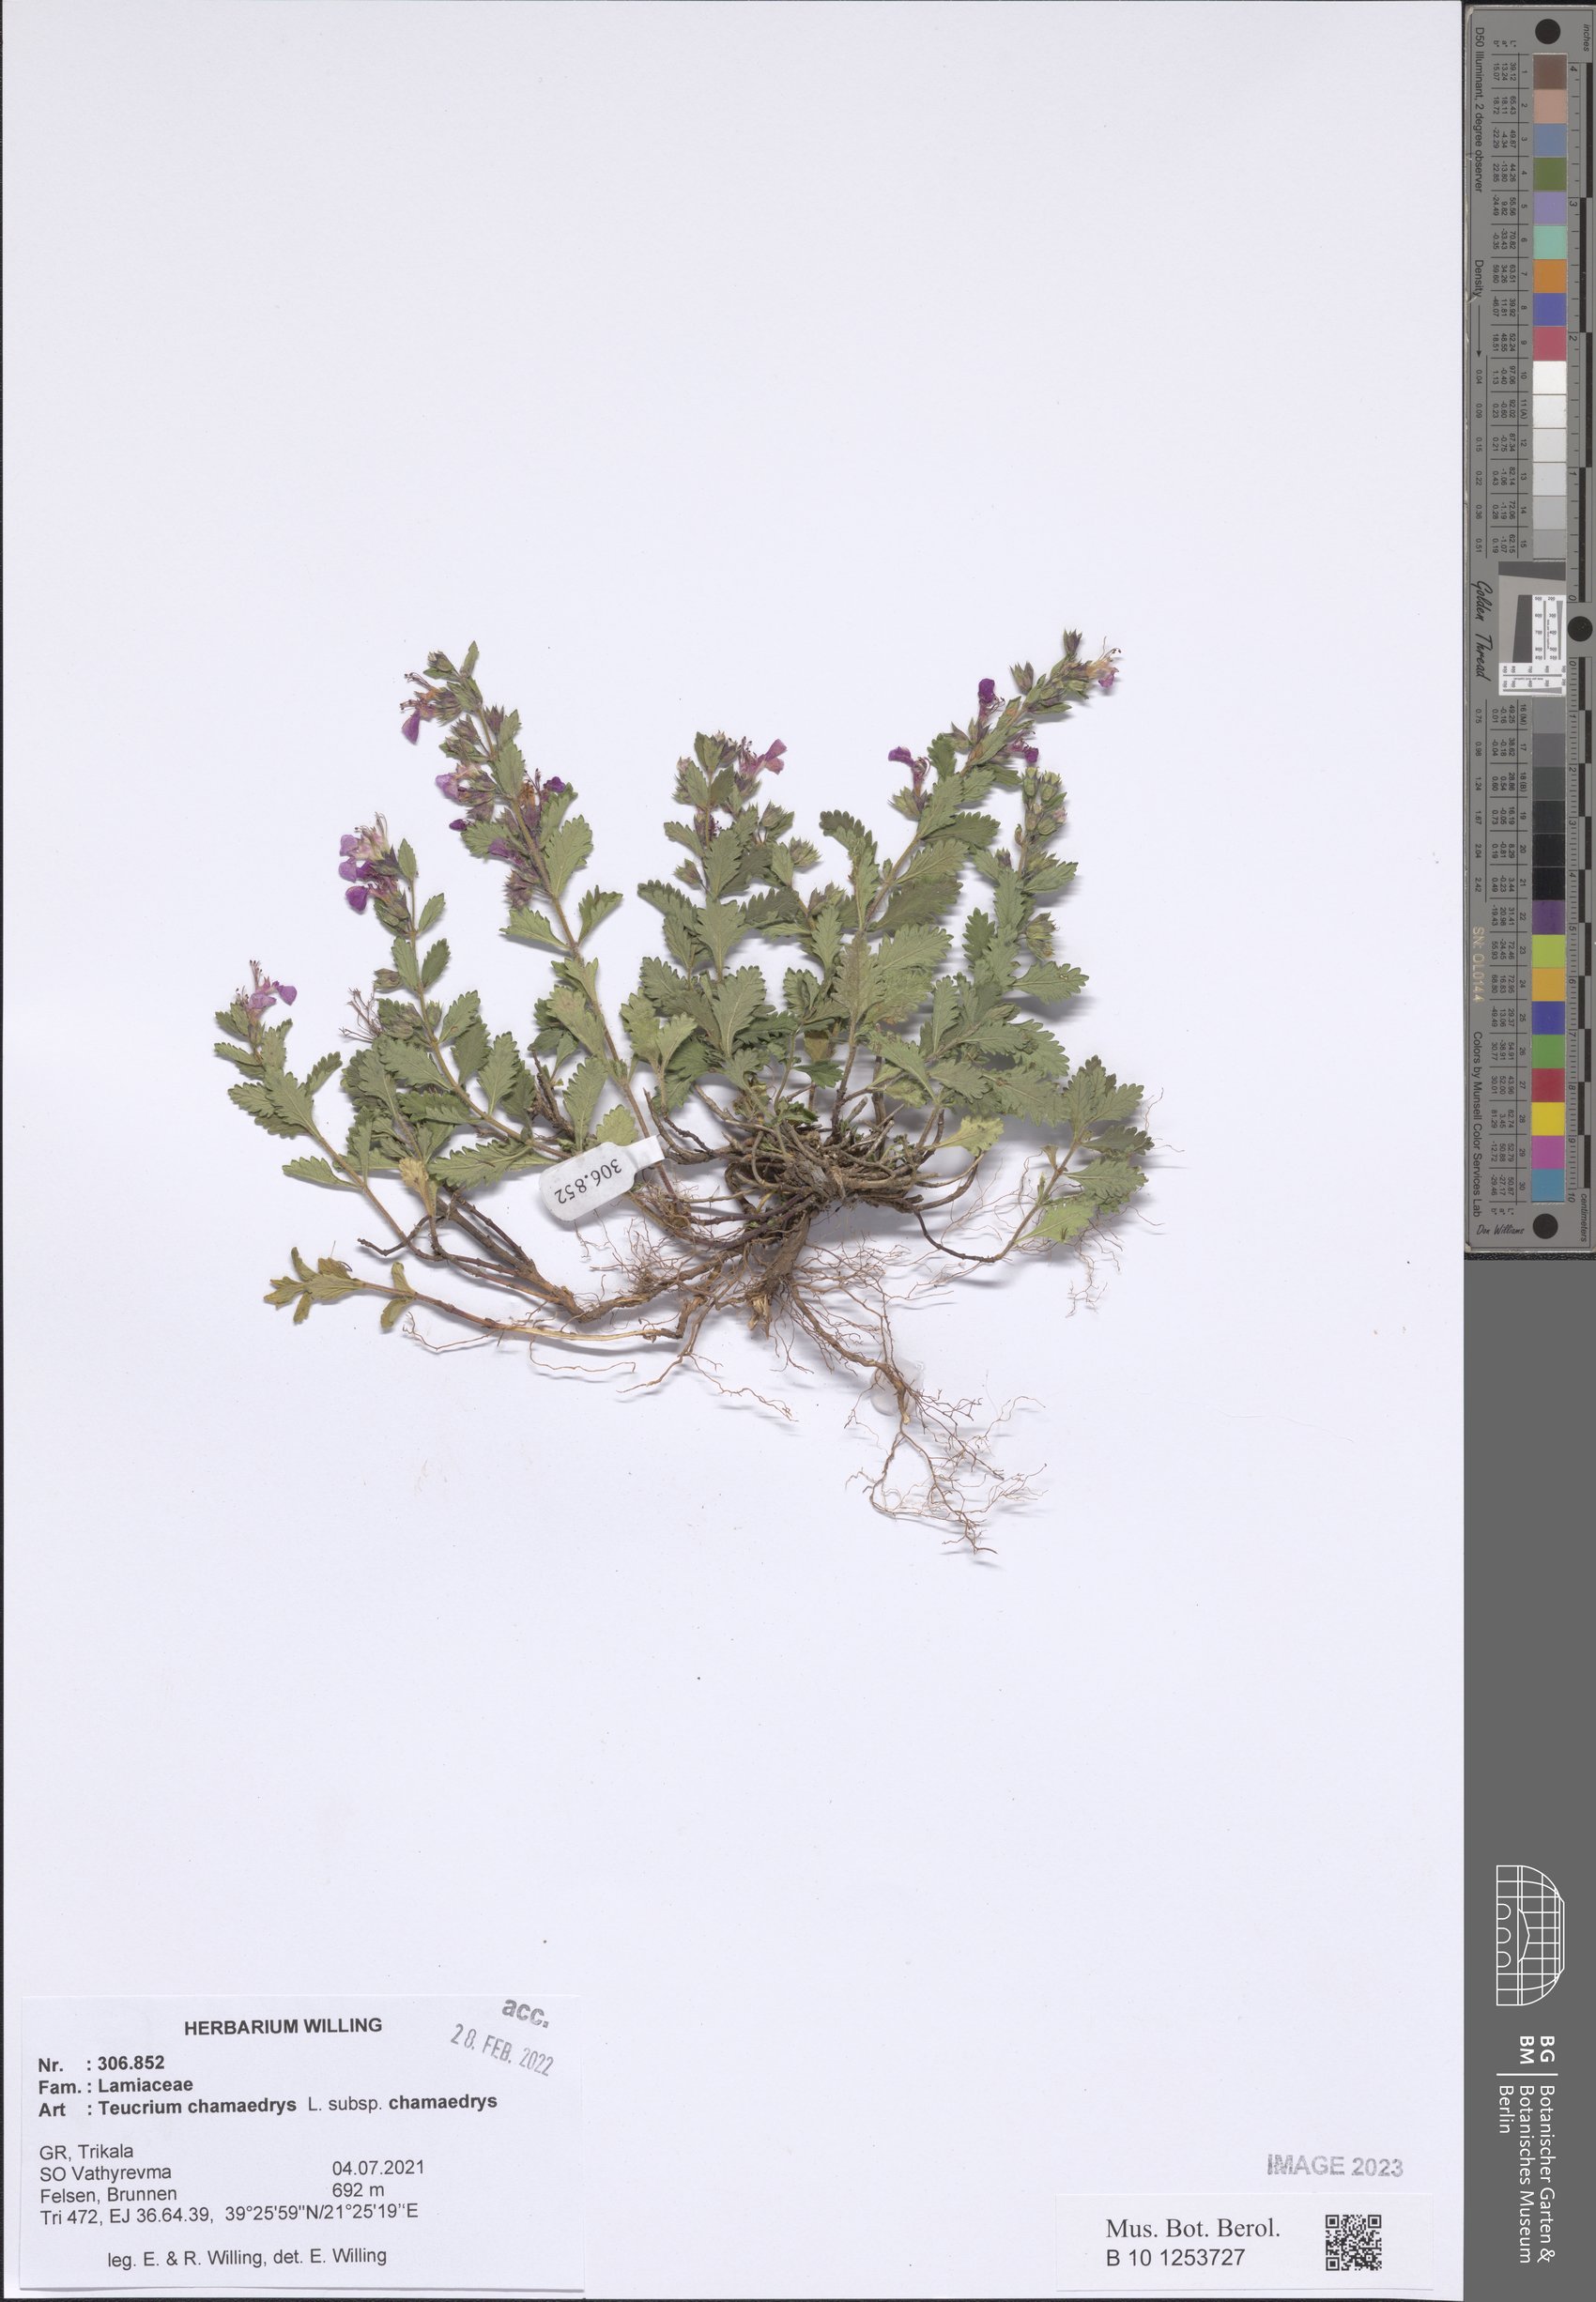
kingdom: Plantae
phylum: Tracheophyta
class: Magnoliopsida
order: Lamiales
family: Lamiaceae
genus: Teucrium
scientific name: Teucrium chamaedrys
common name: Wall germander
